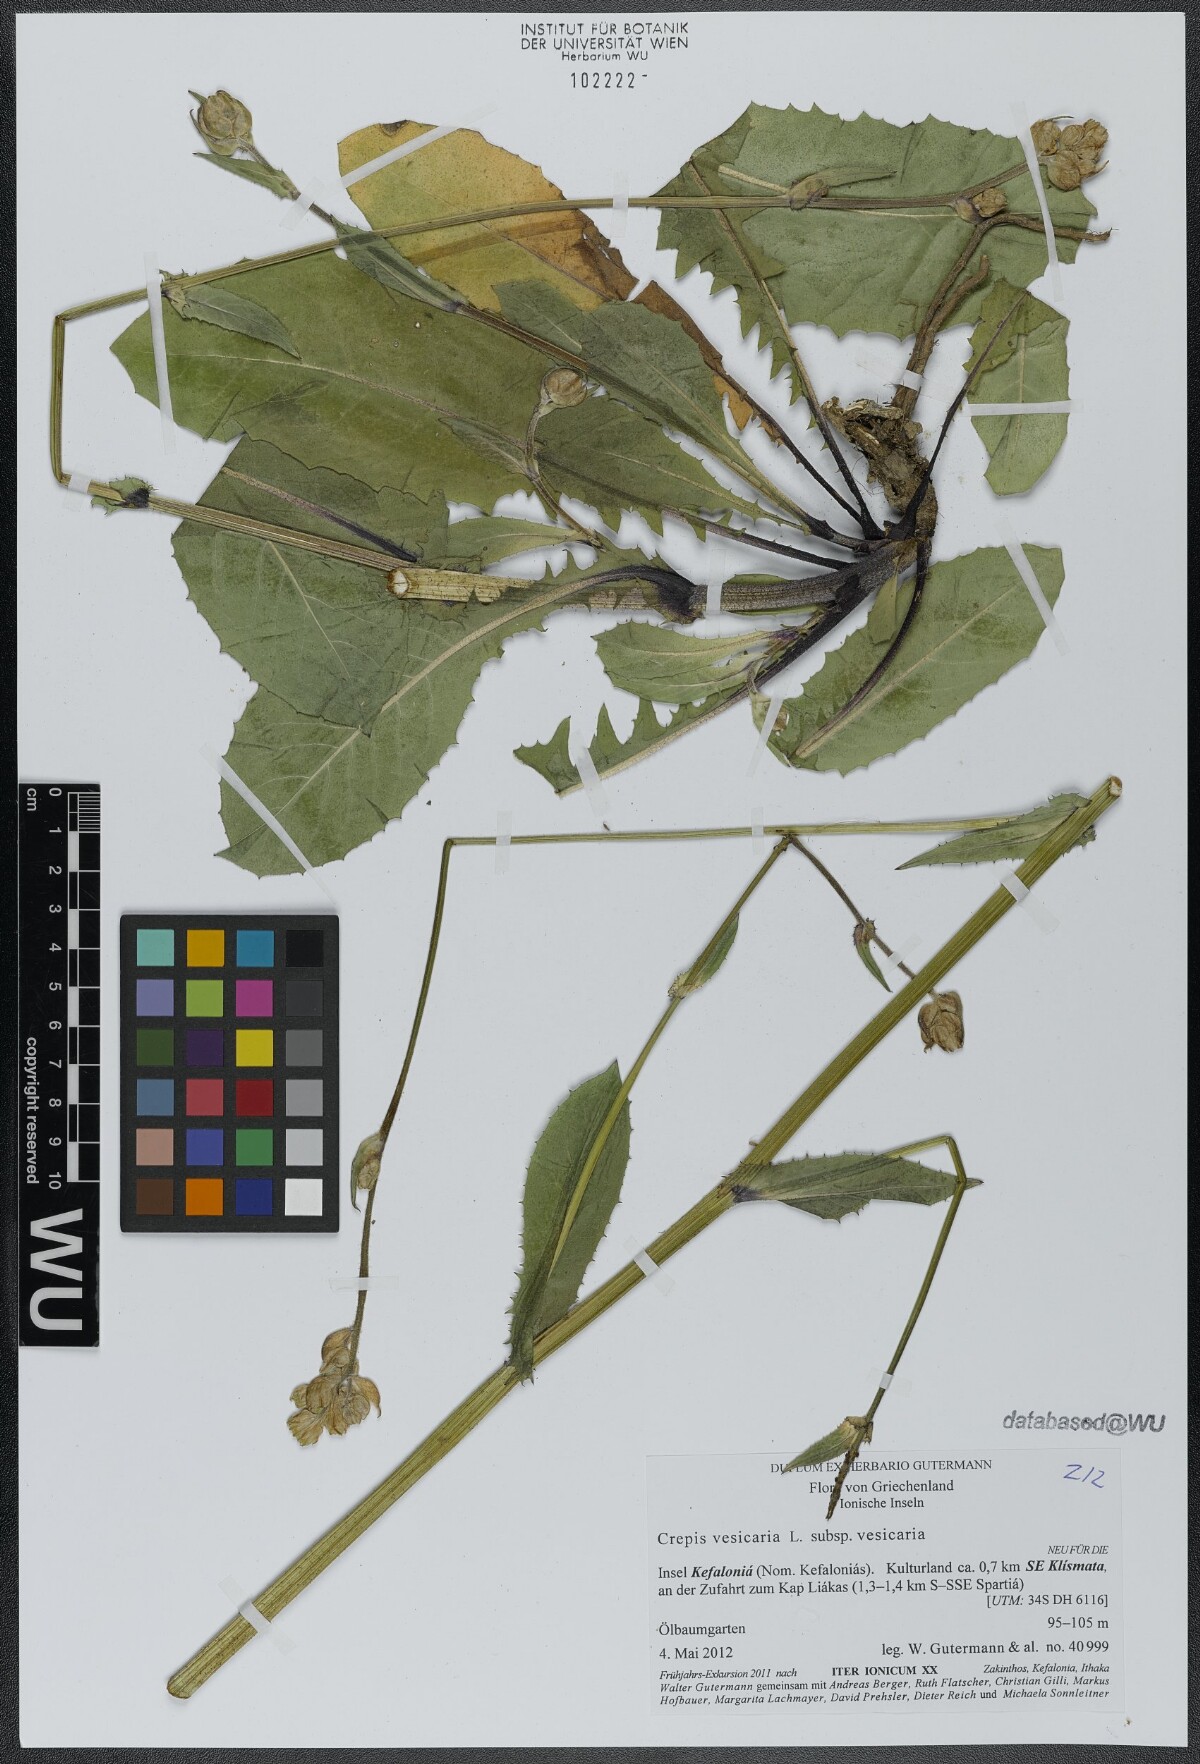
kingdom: Plantae
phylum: Tracheophyta
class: Magnoliopsida
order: Asterales
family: Asteraceae
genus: Crepis
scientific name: Crepis vesicaria
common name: Beaked hawksbeard
